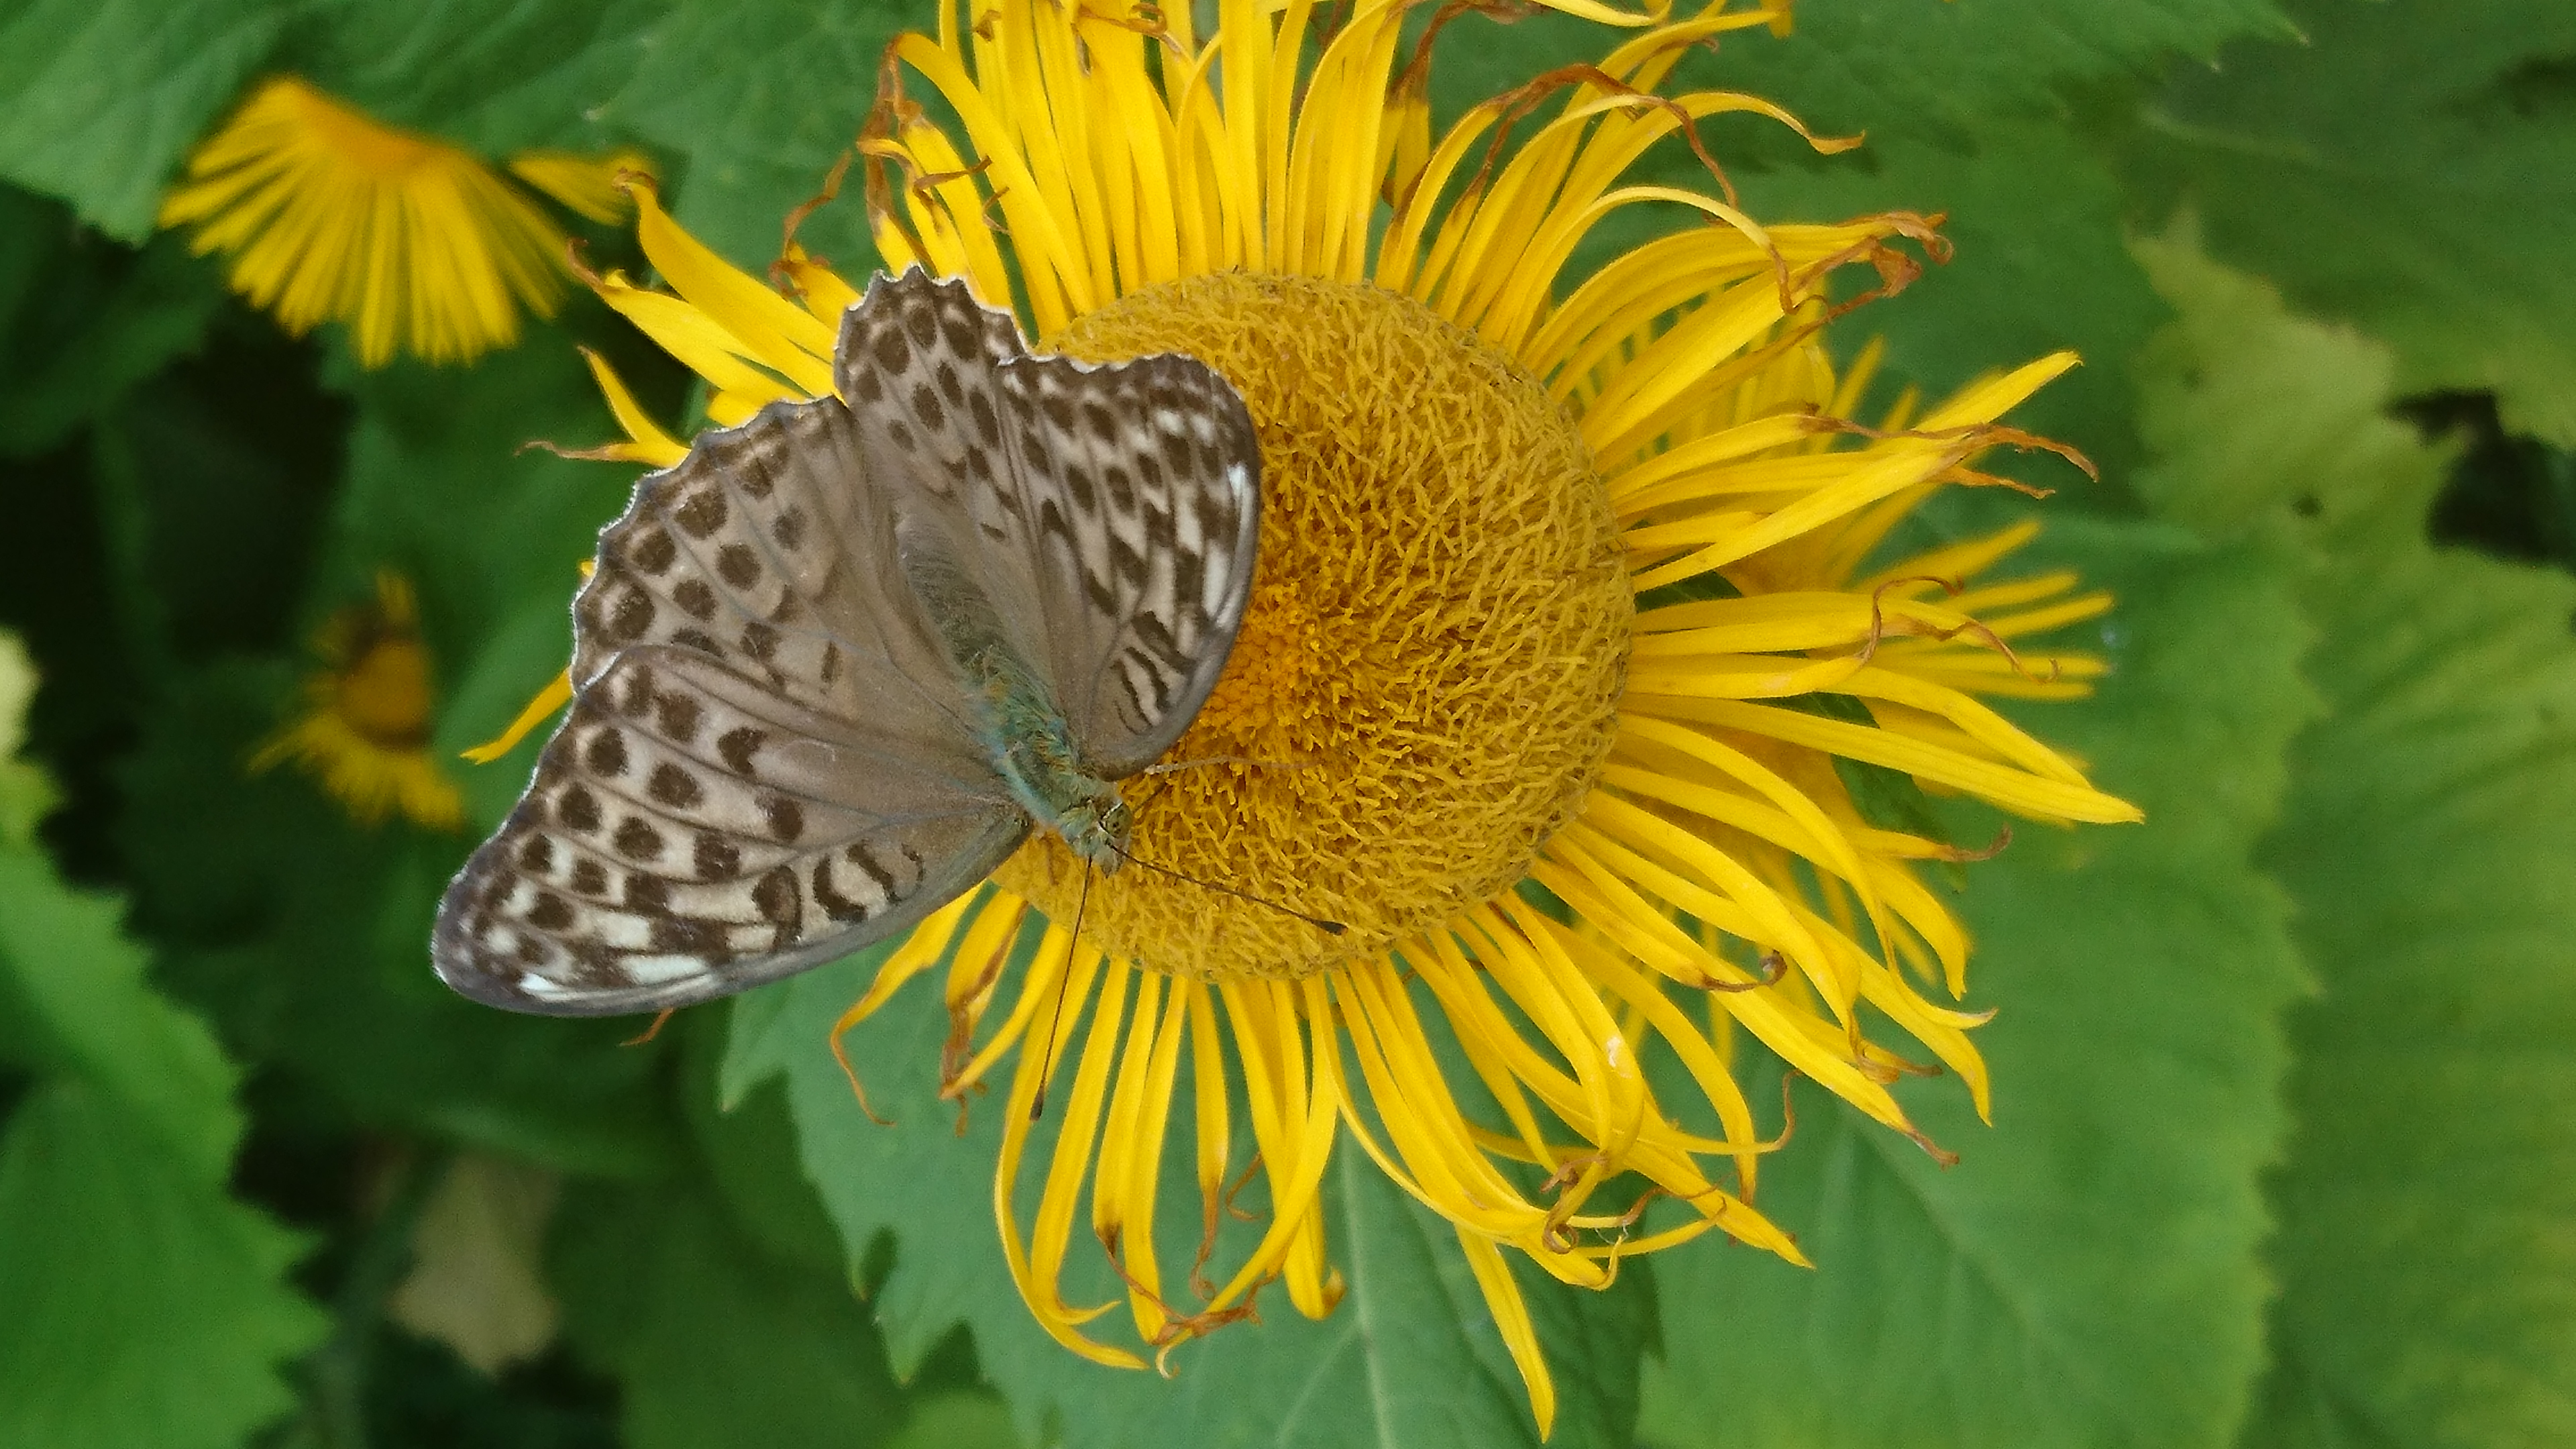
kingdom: Animalia
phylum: Arthropoda
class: Insecta
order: Lepidoptera
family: Nymphalidae
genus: Argynnis
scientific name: Argynnis paphia
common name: Silver-washed fritillary
